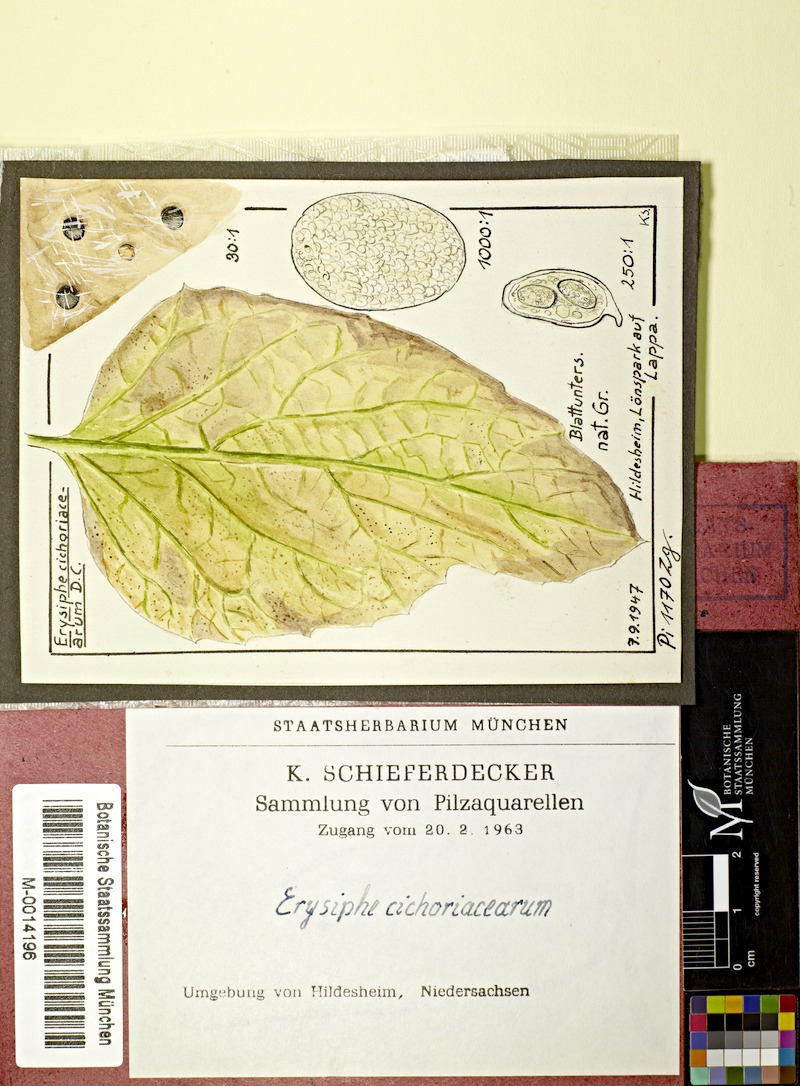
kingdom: Plantae
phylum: Tracheophyta
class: Magnoliopsida
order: Asterales
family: Asteraceae
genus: Arctium
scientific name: Arctium
